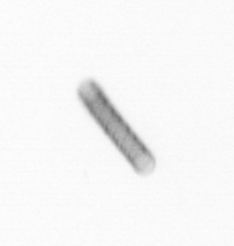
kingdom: Chromista
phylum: Ochrophyta
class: Bacillariophyceae
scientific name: Bacillariophyceae
